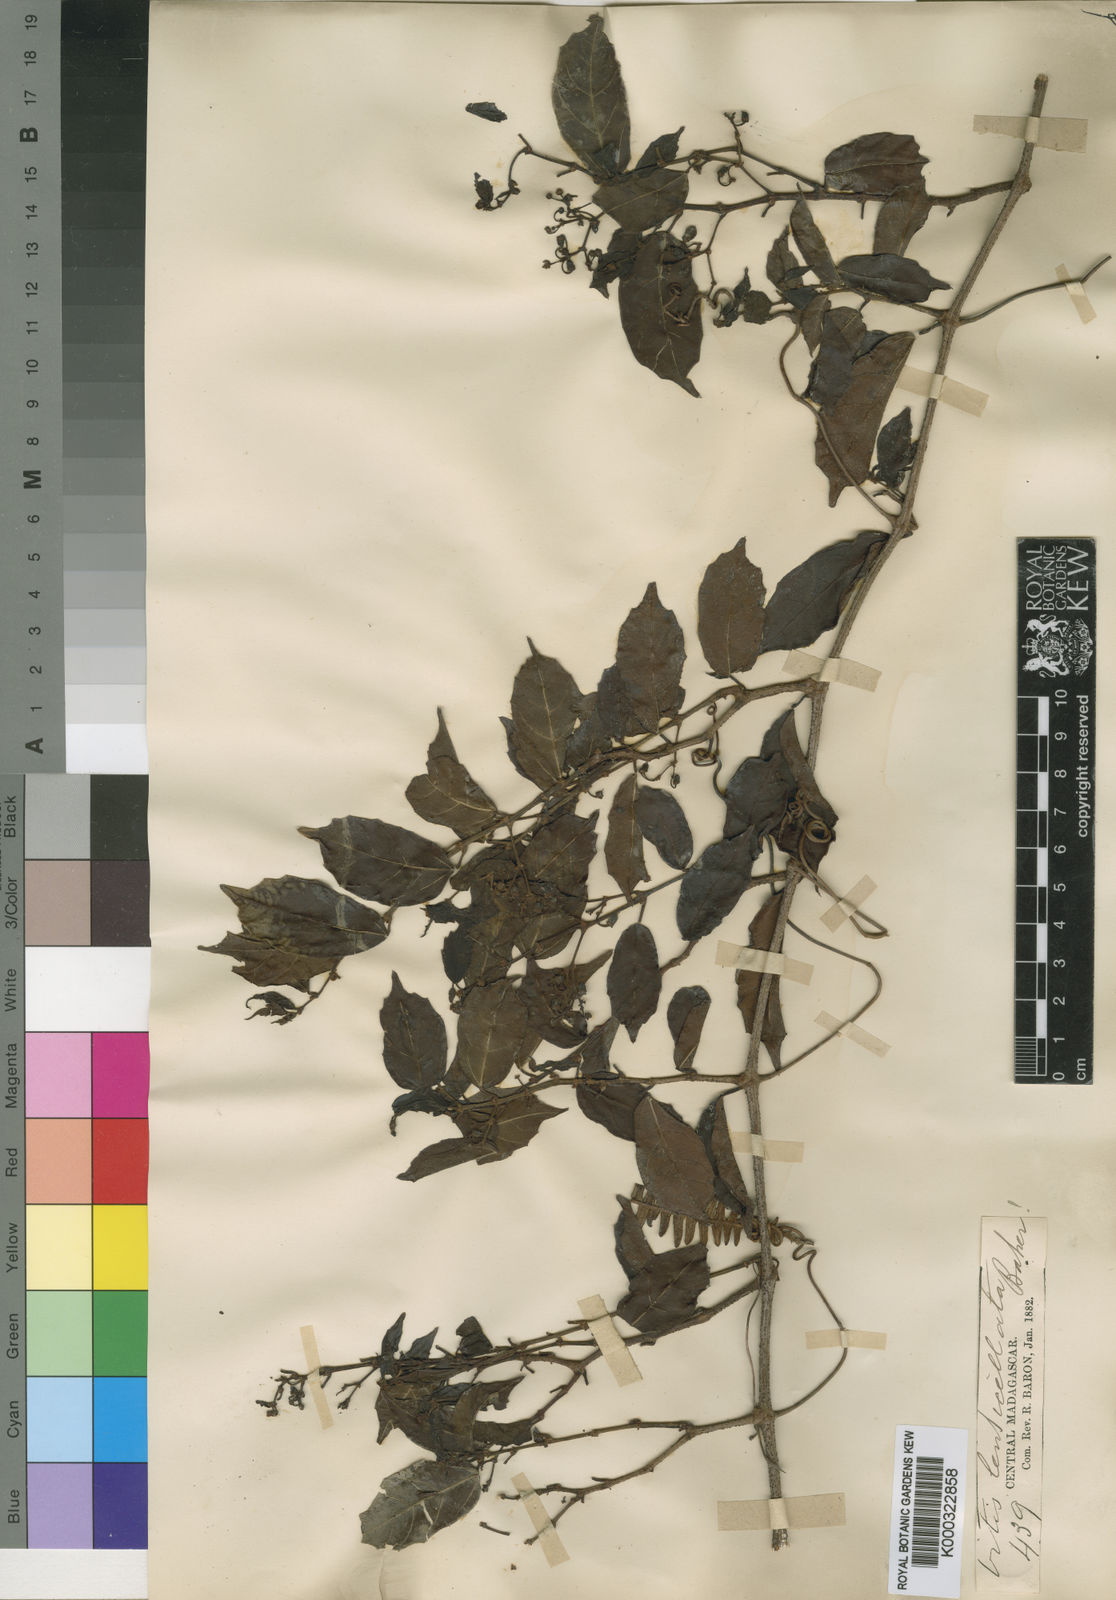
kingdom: Plantae
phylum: Tracheophyta
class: Magnoliopsida
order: Vitales
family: Vitaceae
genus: Cissus
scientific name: Cissus floribunda
